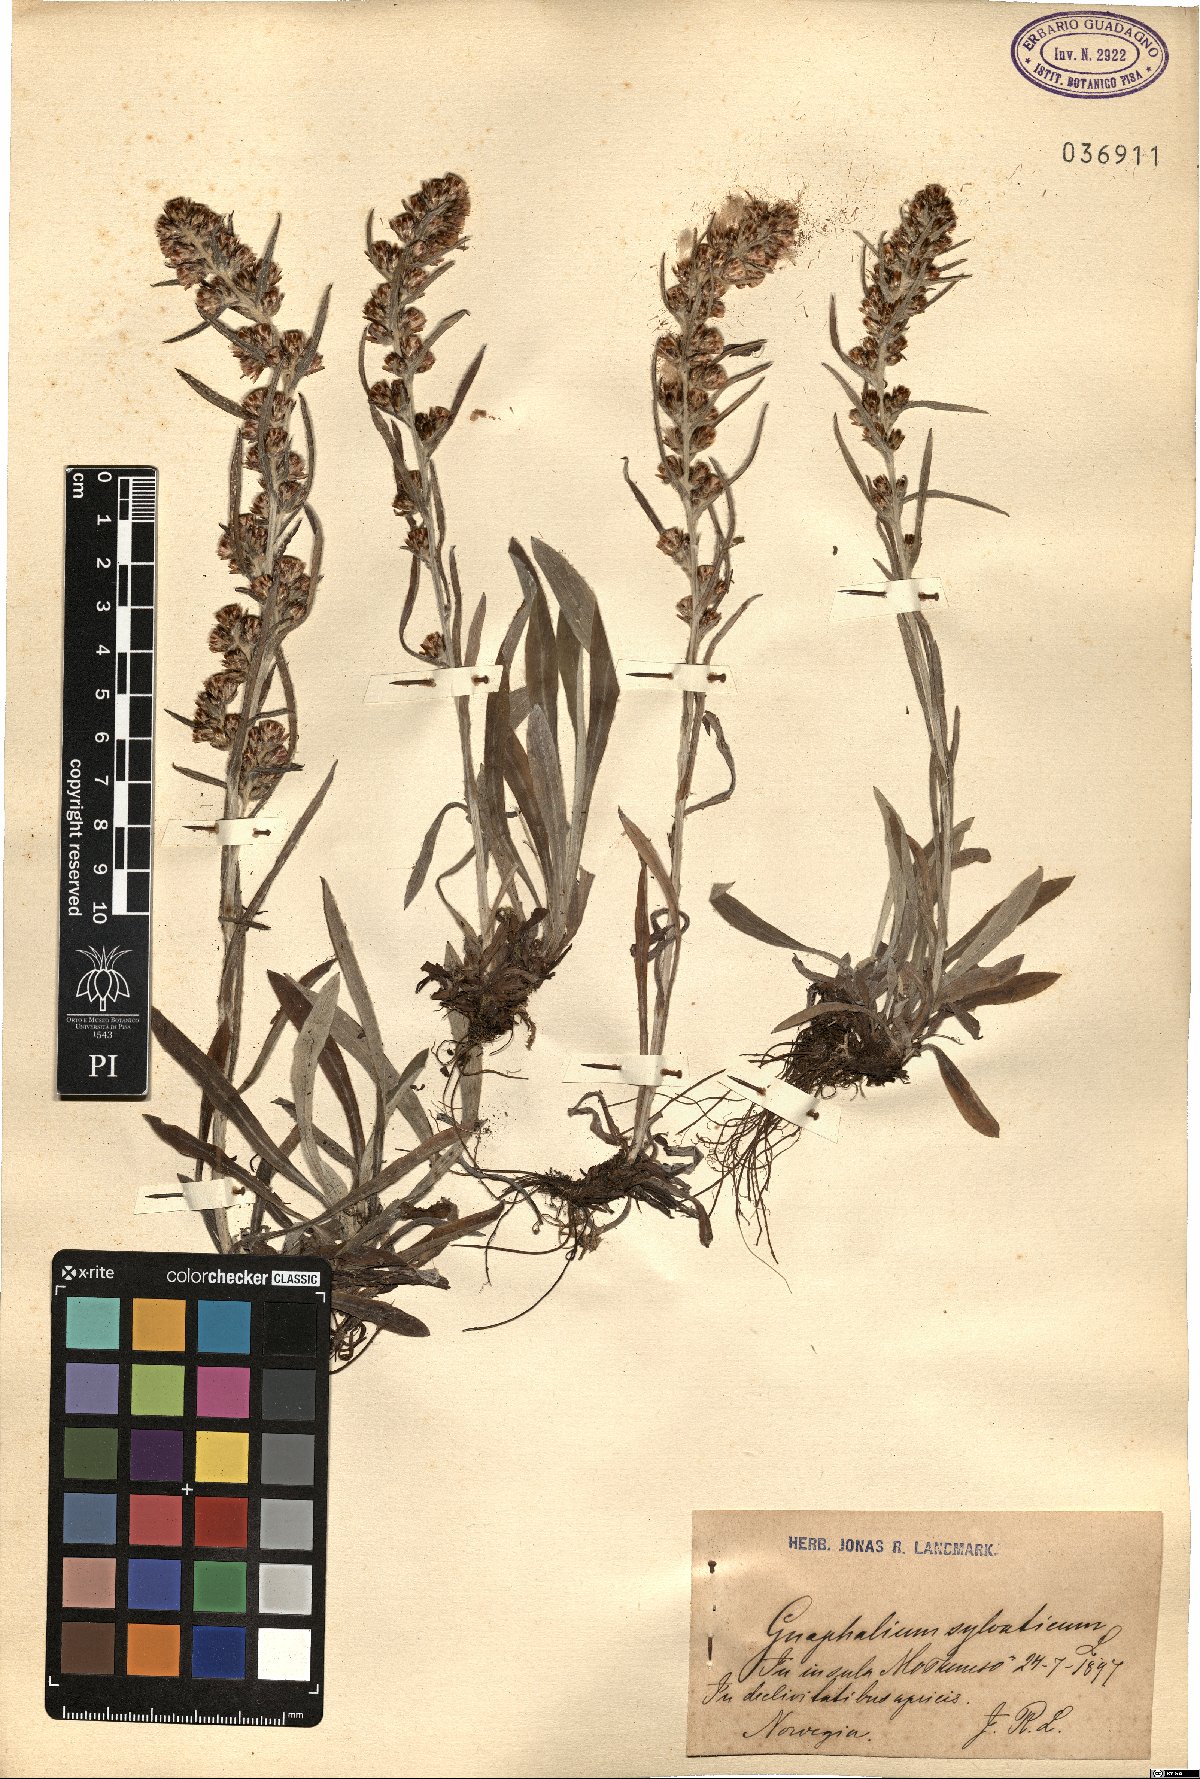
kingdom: Plantae
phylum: Tracheophyta
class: Magnoliopsida
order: Asterales
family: Asteraceae
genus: Omalotheca
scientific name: Omalotheca sylvatica
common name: Heath cudweed
